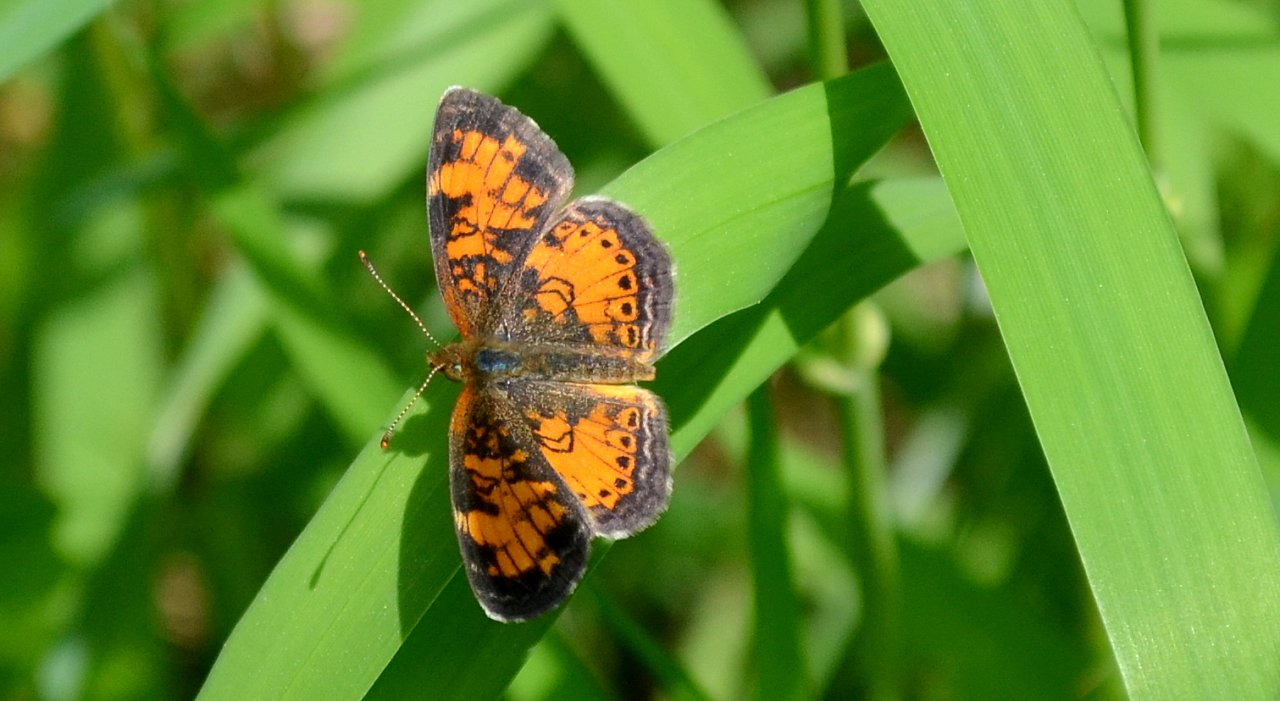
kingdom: Animalia
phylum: Arthropoda
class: Insecta
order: Lepidoptera
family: Nymphalidae
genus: Phyciodes
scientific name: Phyciodes tharos
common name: Northern Crescent
